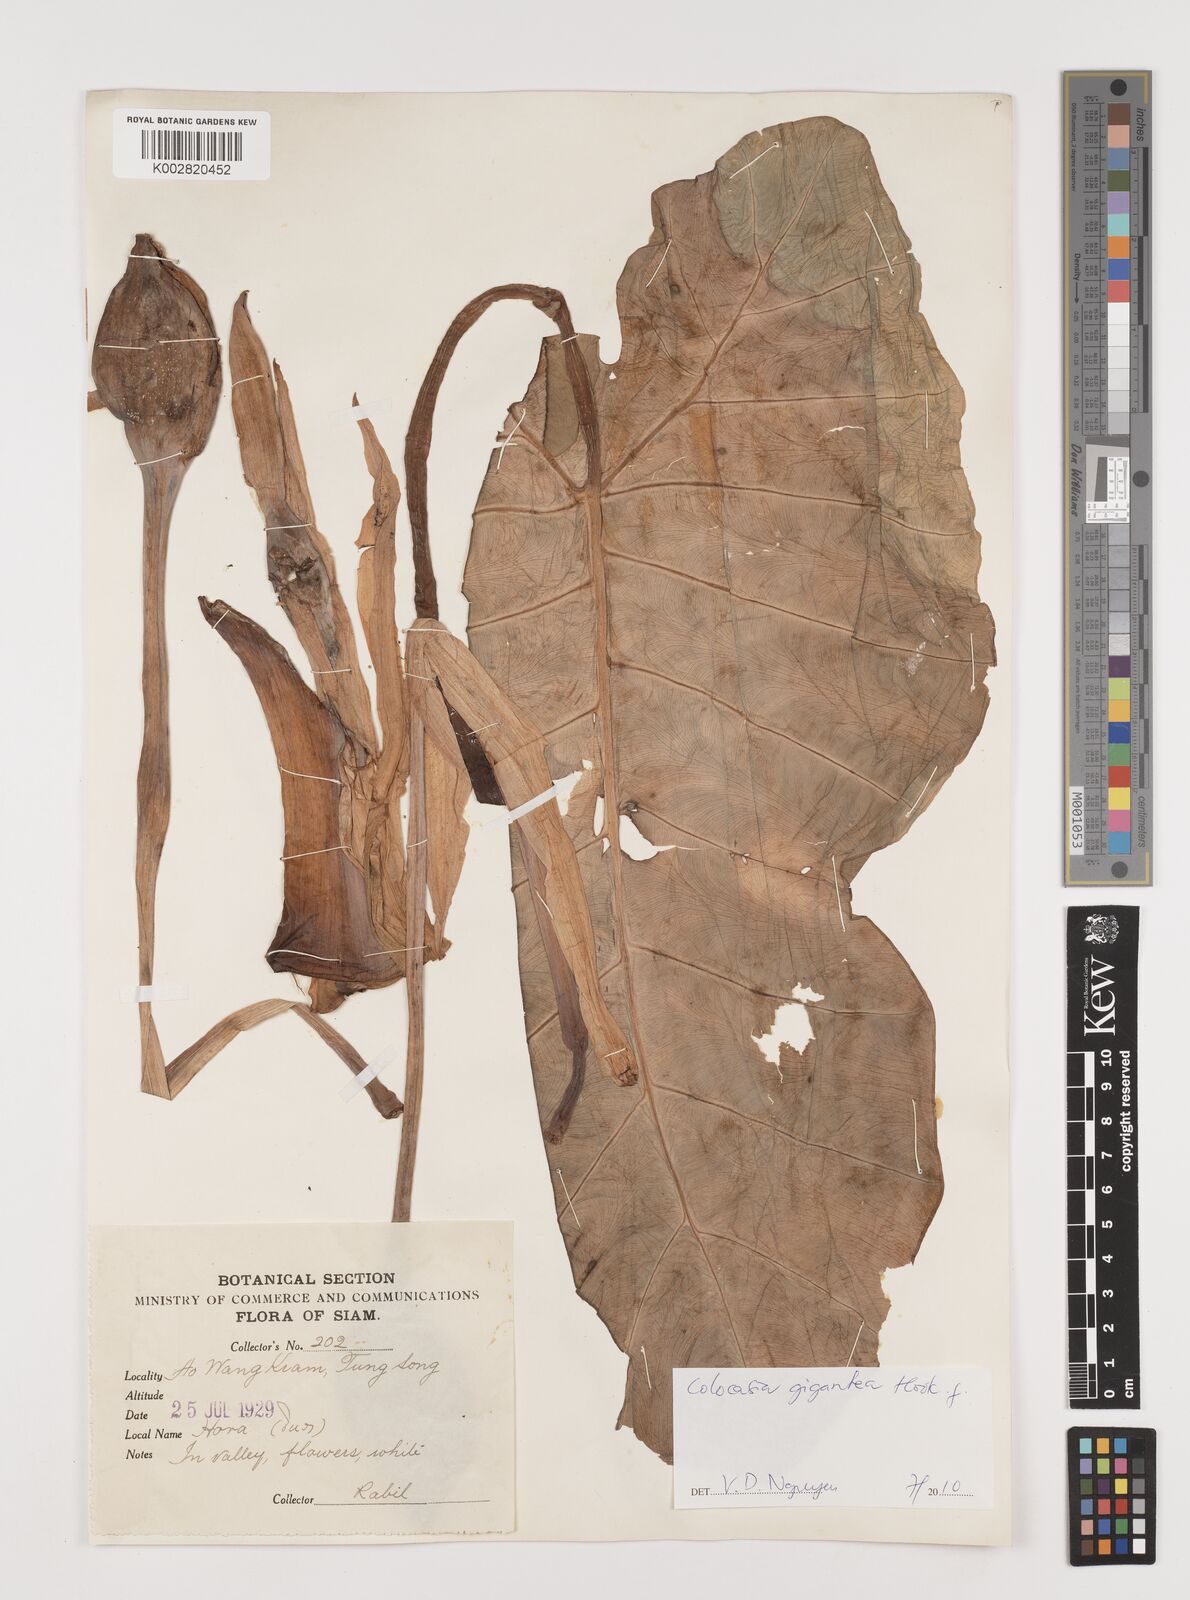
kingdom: Plantae
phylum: Tracheophyta
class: Liliopsida
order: Alismatales
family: Araceae
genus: Leucocasia
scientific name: Leucocasia gigantea
